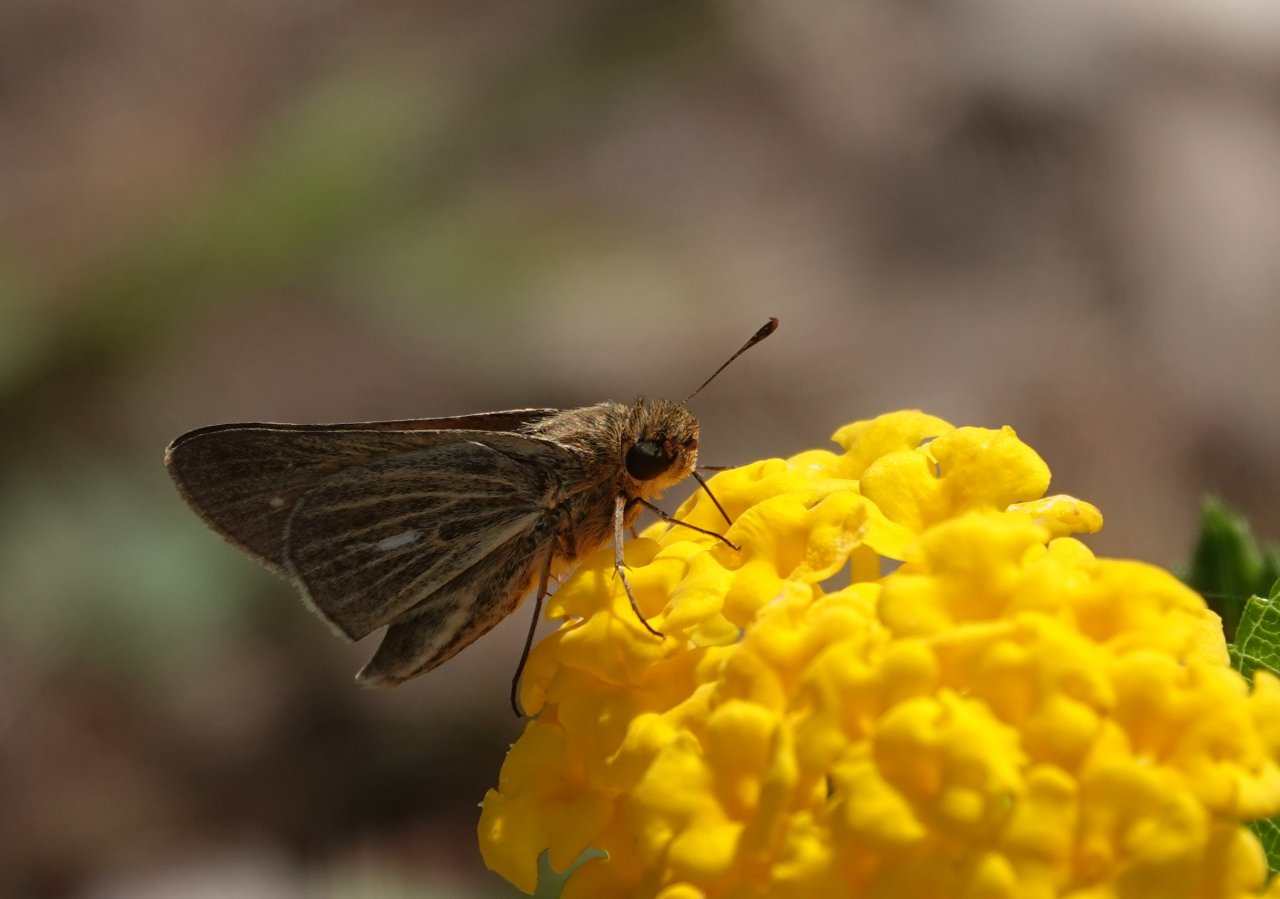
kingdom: Animalia
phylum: Arthropoda
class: Insecta
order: Lepidoptera
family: Hesperiidae
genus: Panoquina
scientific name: Panoquina panoquin
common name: Salt Marsh Skipper
